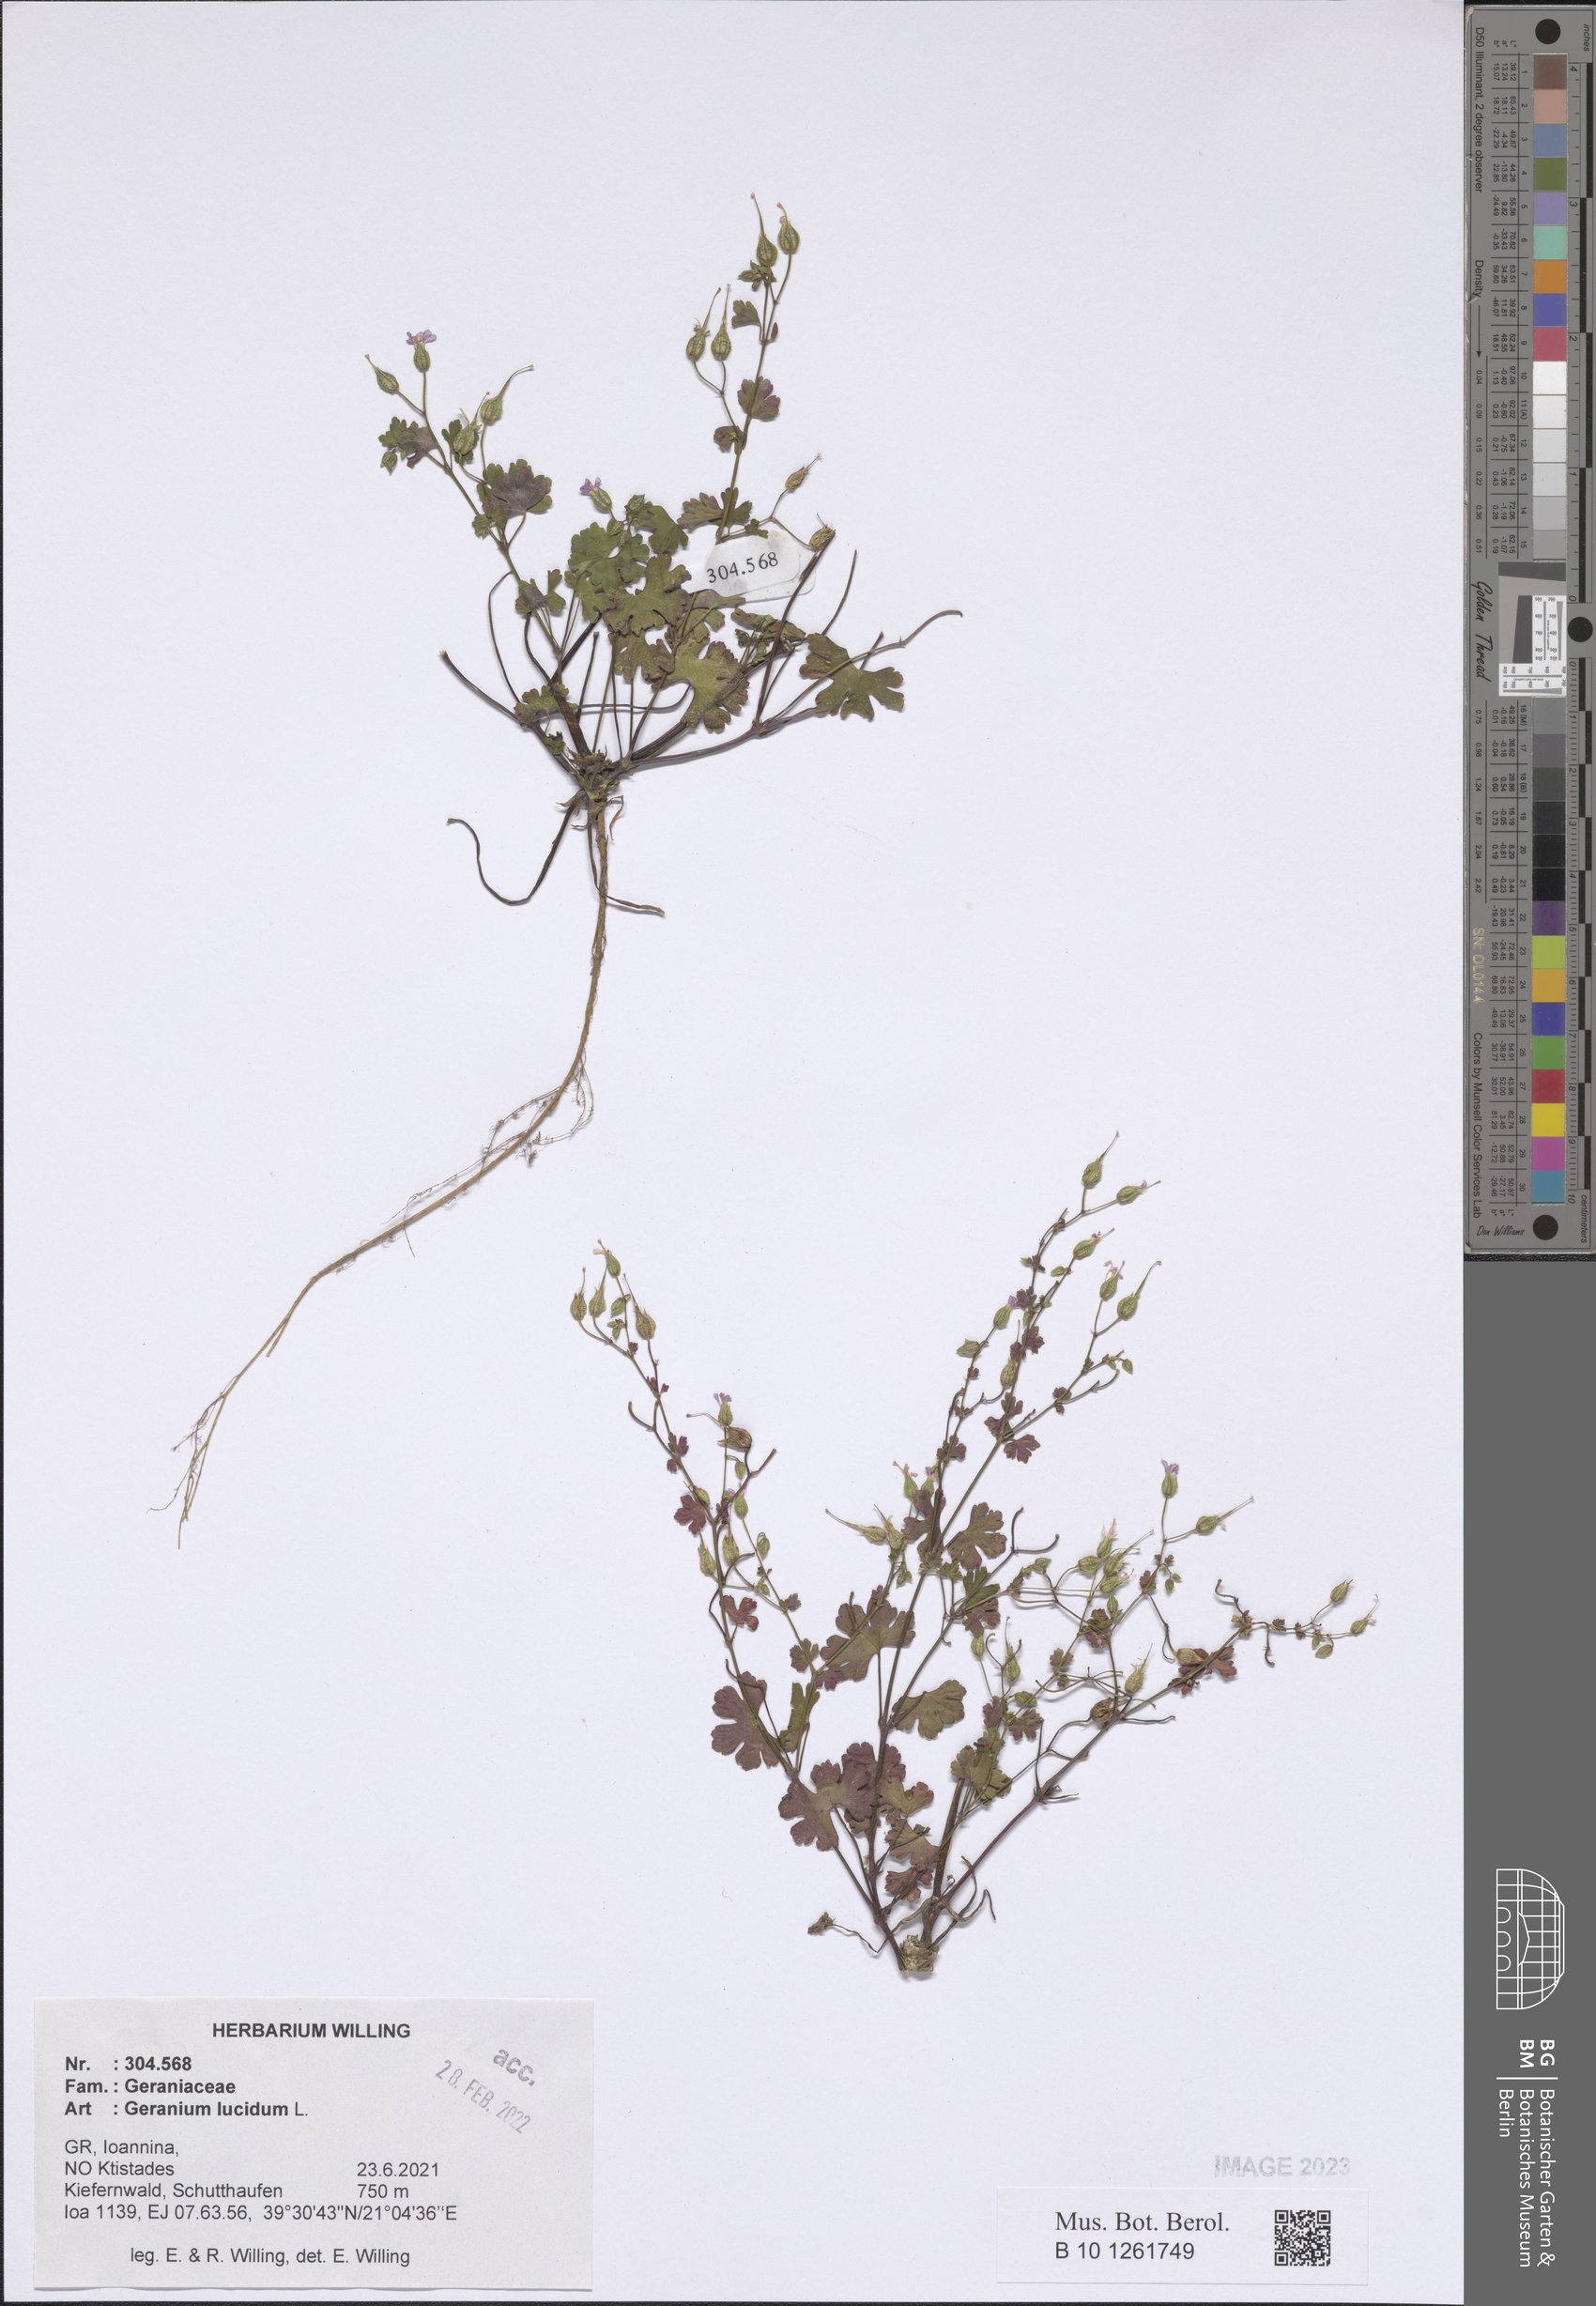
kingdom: Plantae
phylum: Tracheophyta
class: Magnoliopsida
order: Geraniales
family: Geraniaceae
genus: Geranium
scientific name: Geranium lucidum
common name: Shining crane's-bill
